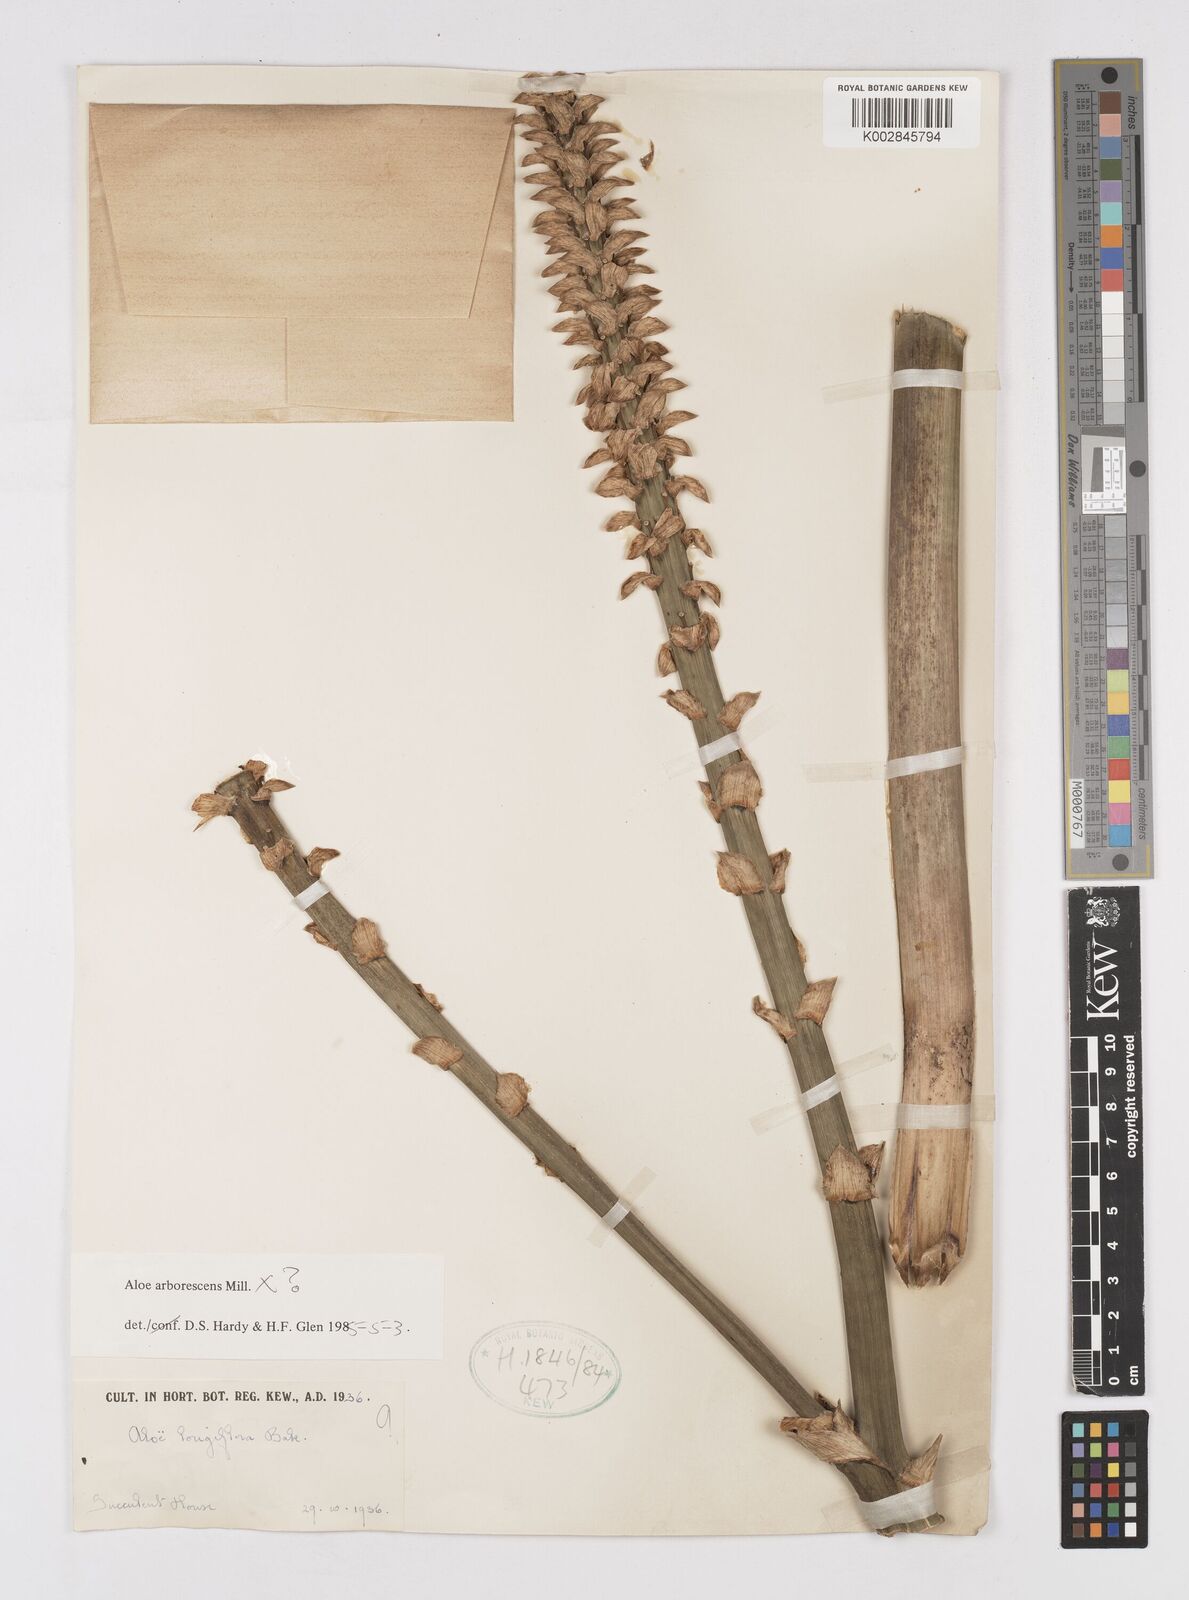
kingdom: Plantae
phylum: Tracheophyta
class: Liliopsida
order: Asparagales
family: Asphodelaceae
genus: Aloe
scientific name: Aloe arborescens
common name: Candelabra aloe
